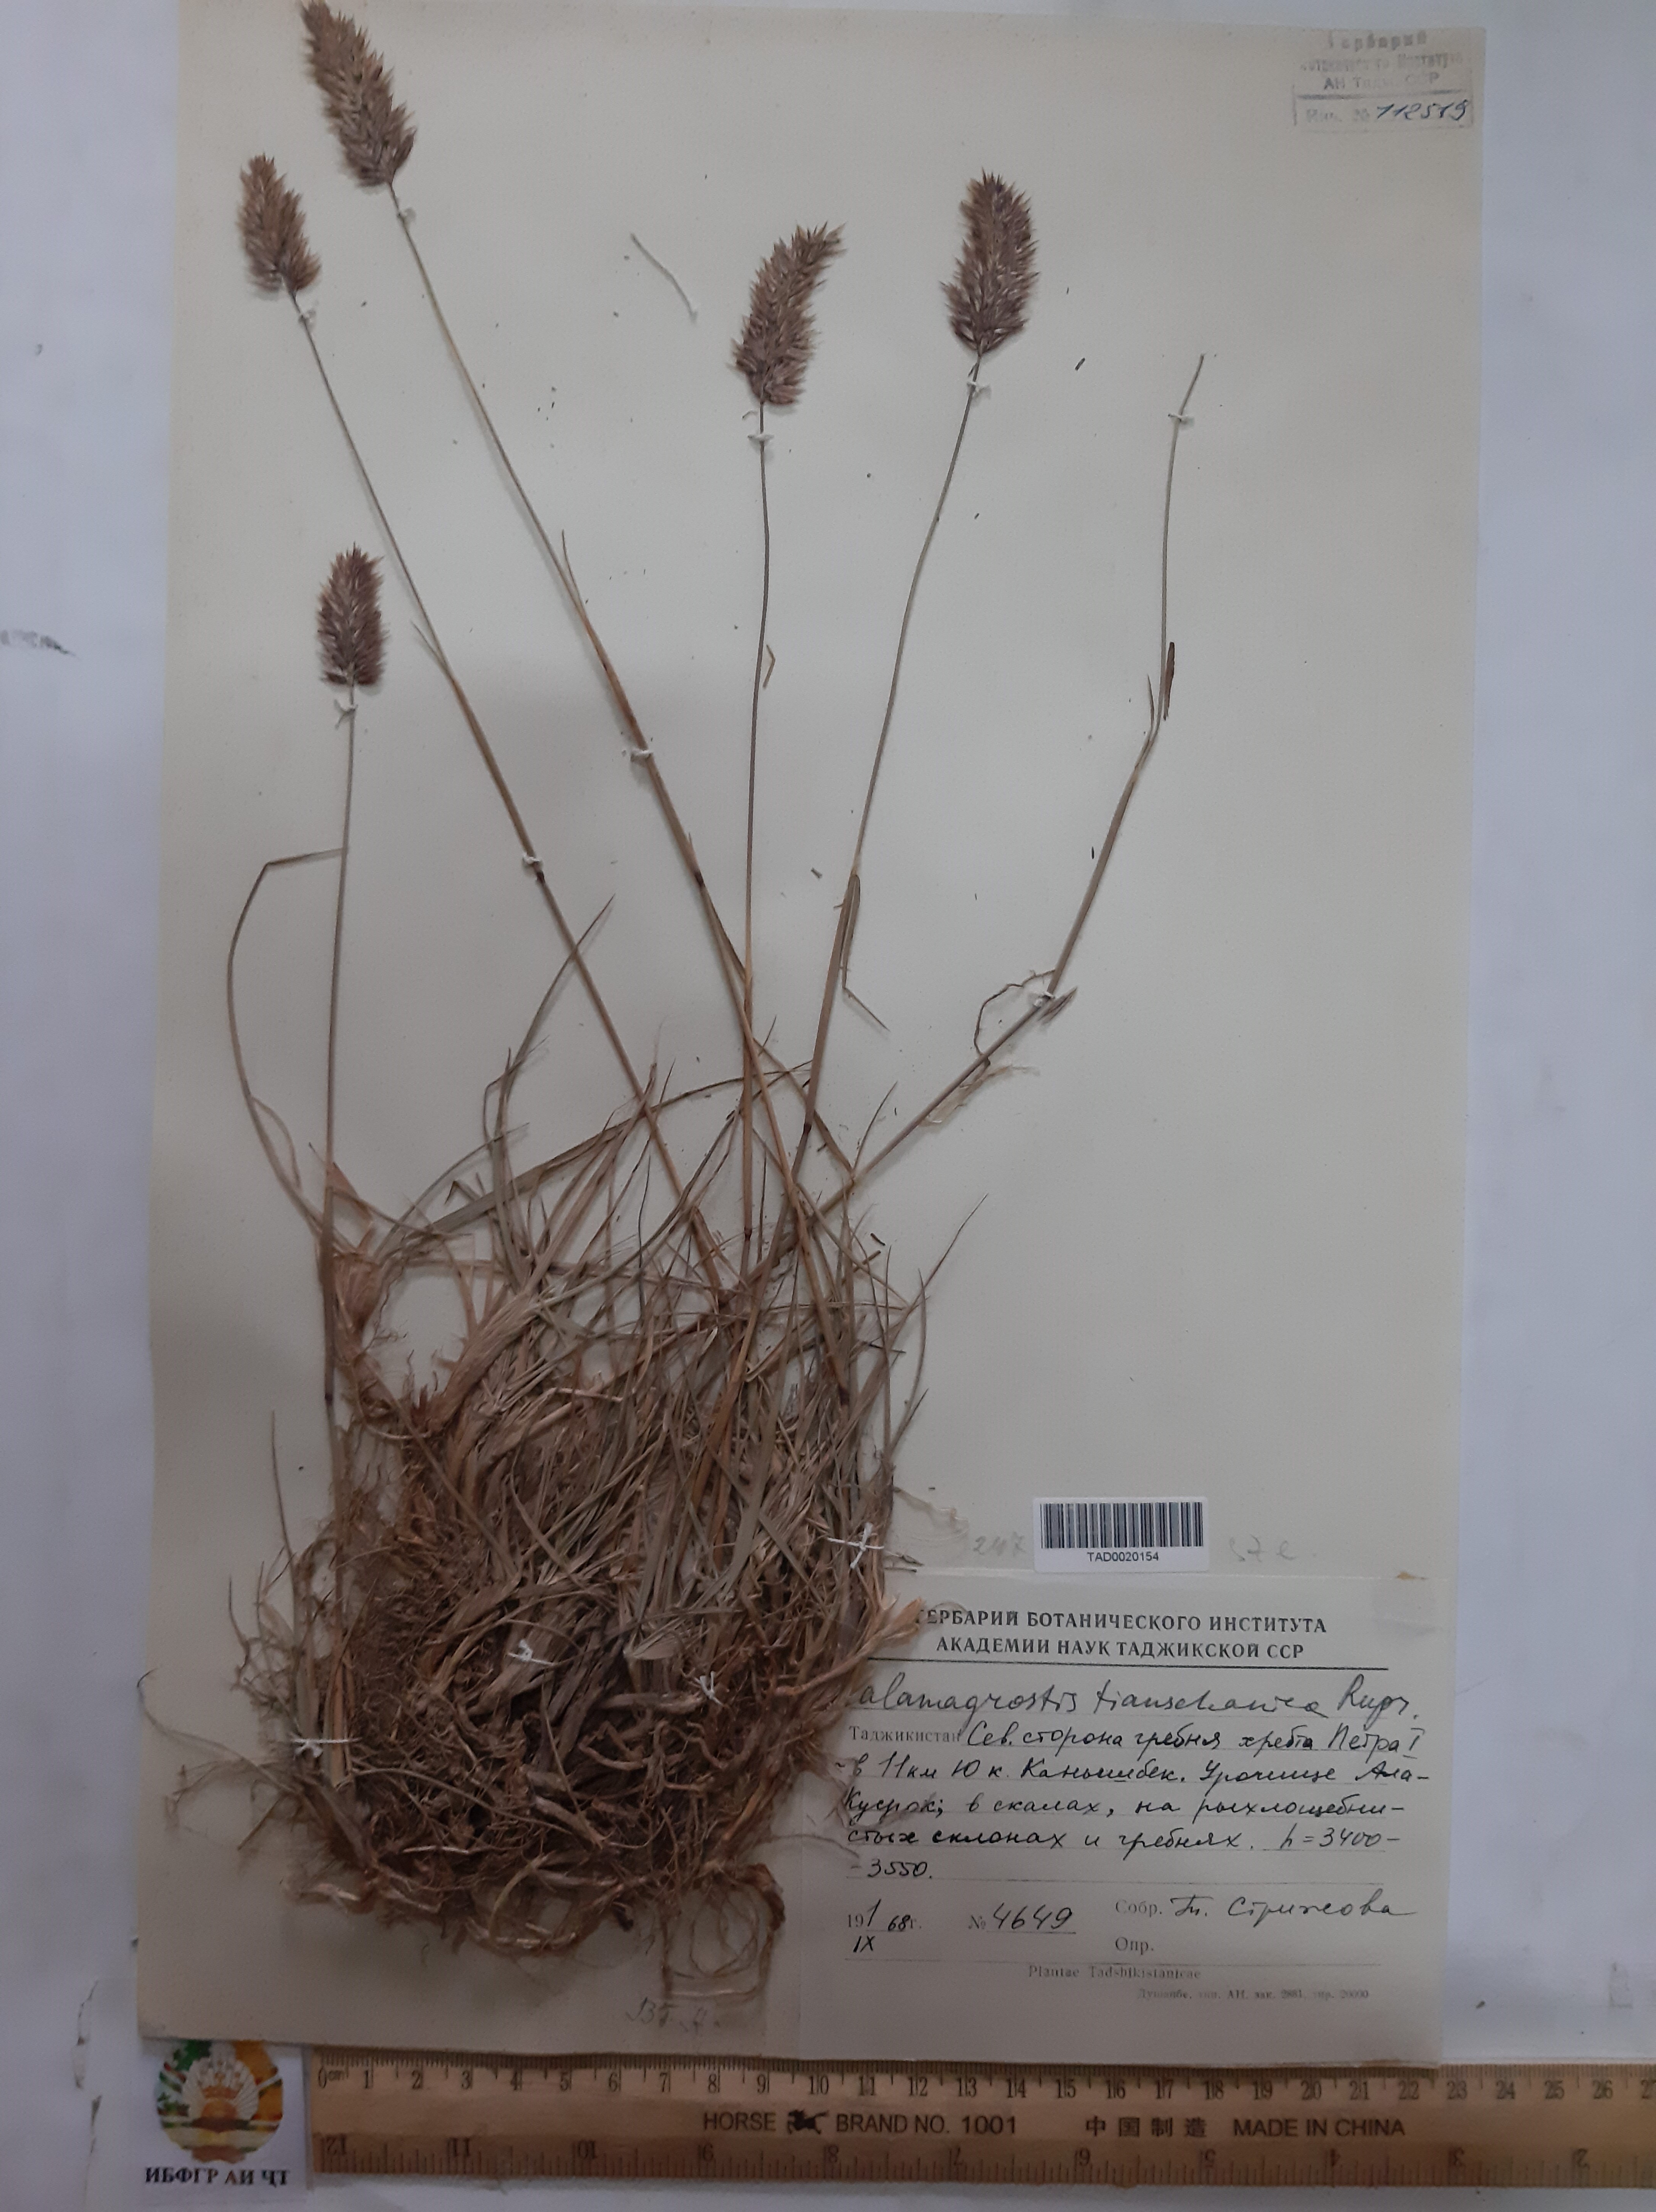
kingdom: Plantae
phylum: Tracheophyta
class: Liliopsida
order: Poales
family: Poaceae
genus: Calamagrostis
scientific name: Calamagrostis tianschanica
